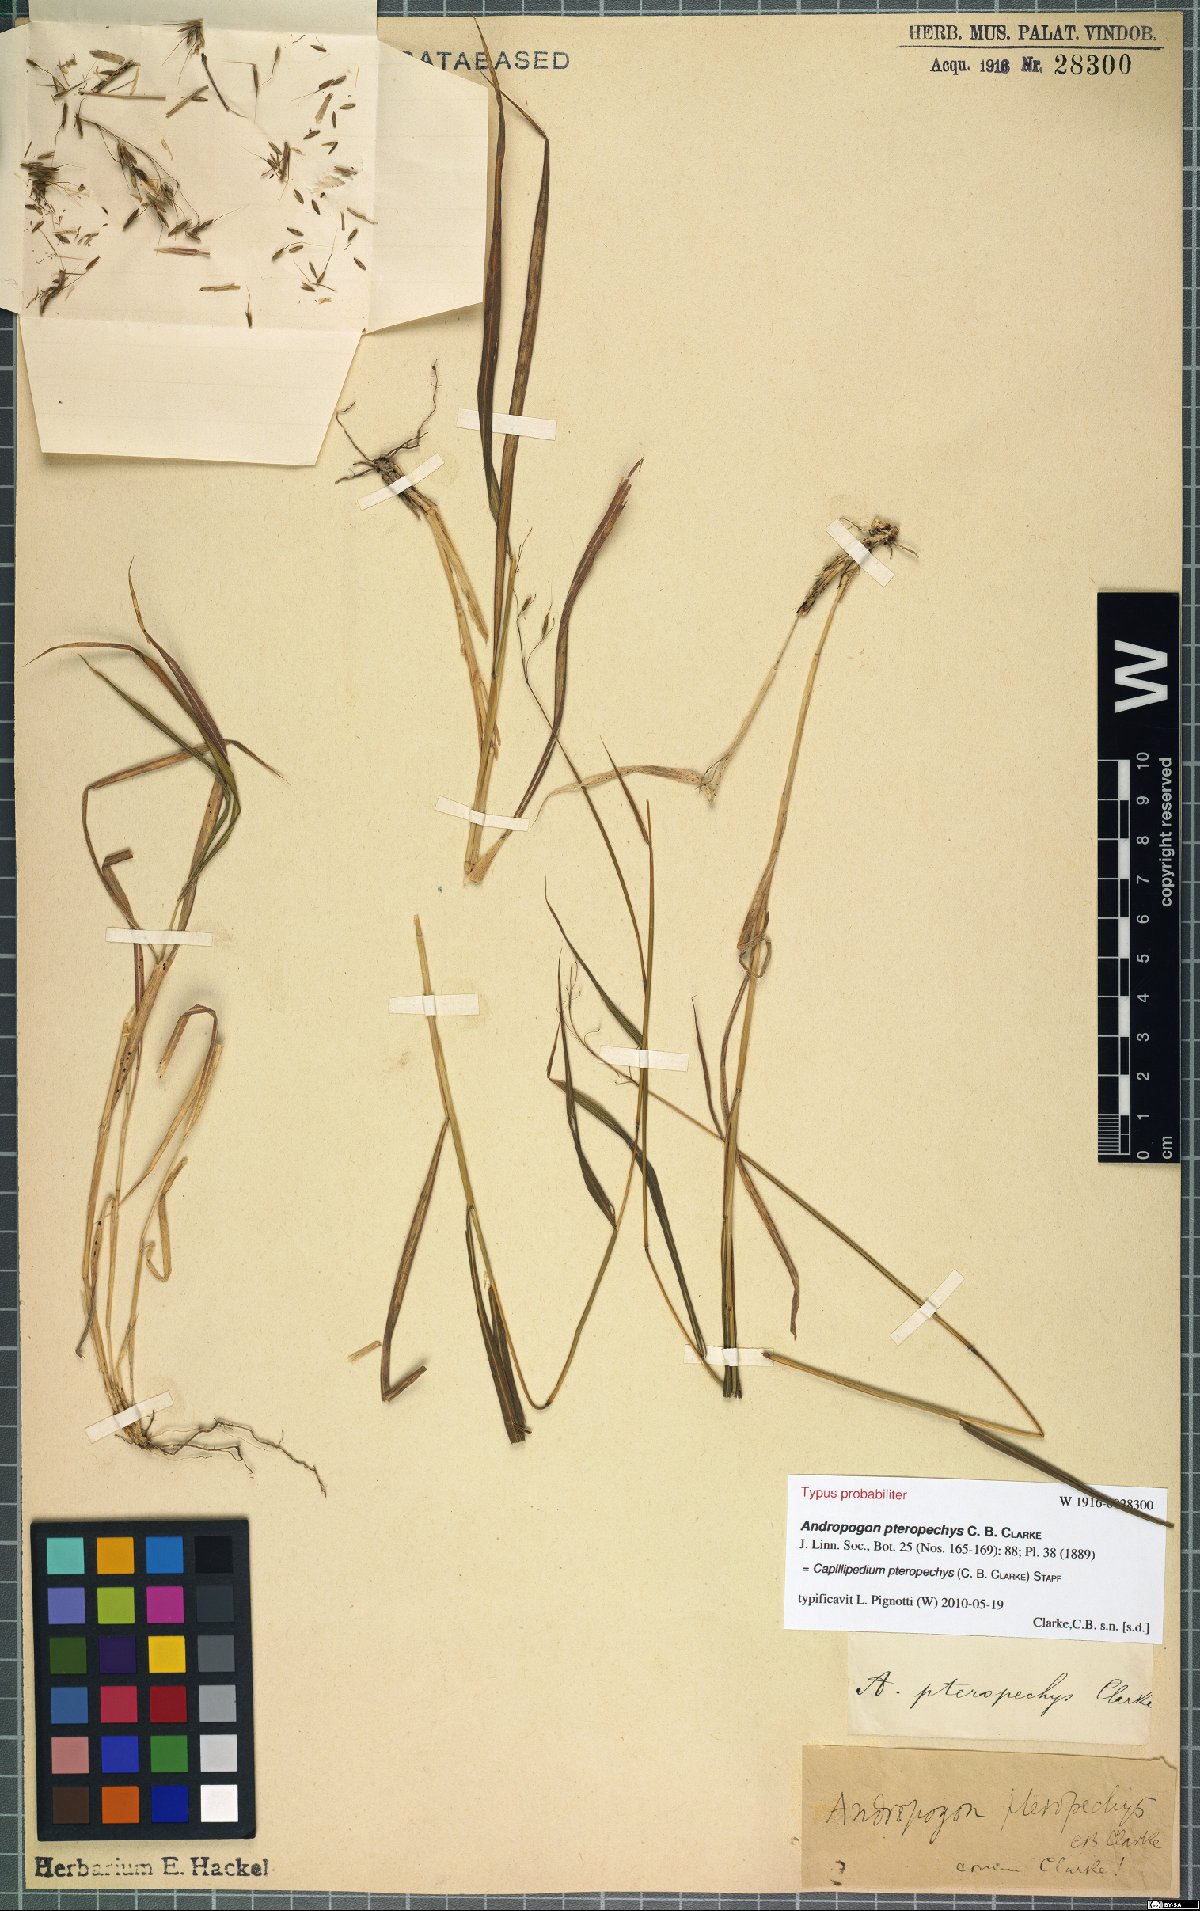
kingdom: Plantae
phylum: Tracheophyta
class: Liliopsida
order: Poales
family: Poaceae
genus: Capillipedium
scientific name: Capillipedium pteropechys
